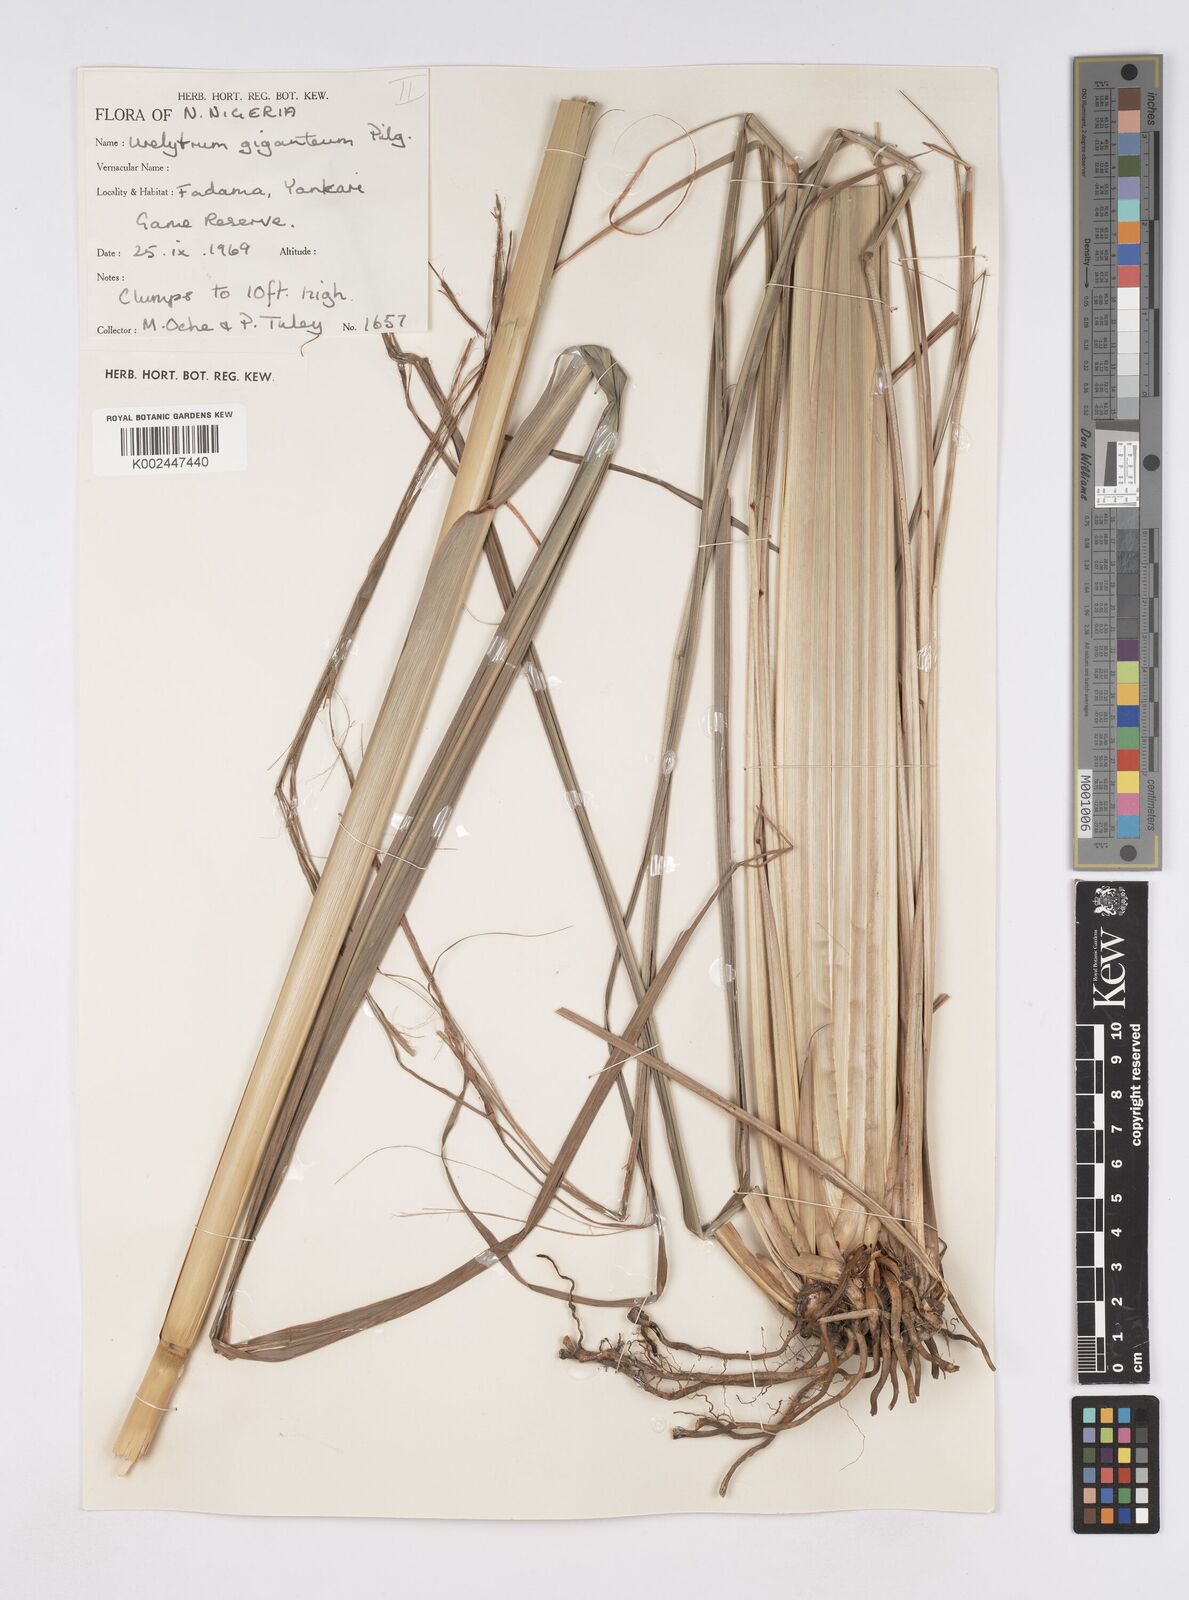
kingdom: Plantae
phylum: Tracheophyta
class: Liliopsida
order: Poales
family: Poaceae
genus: Urelytrum
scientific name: Urelytrum giganteum
